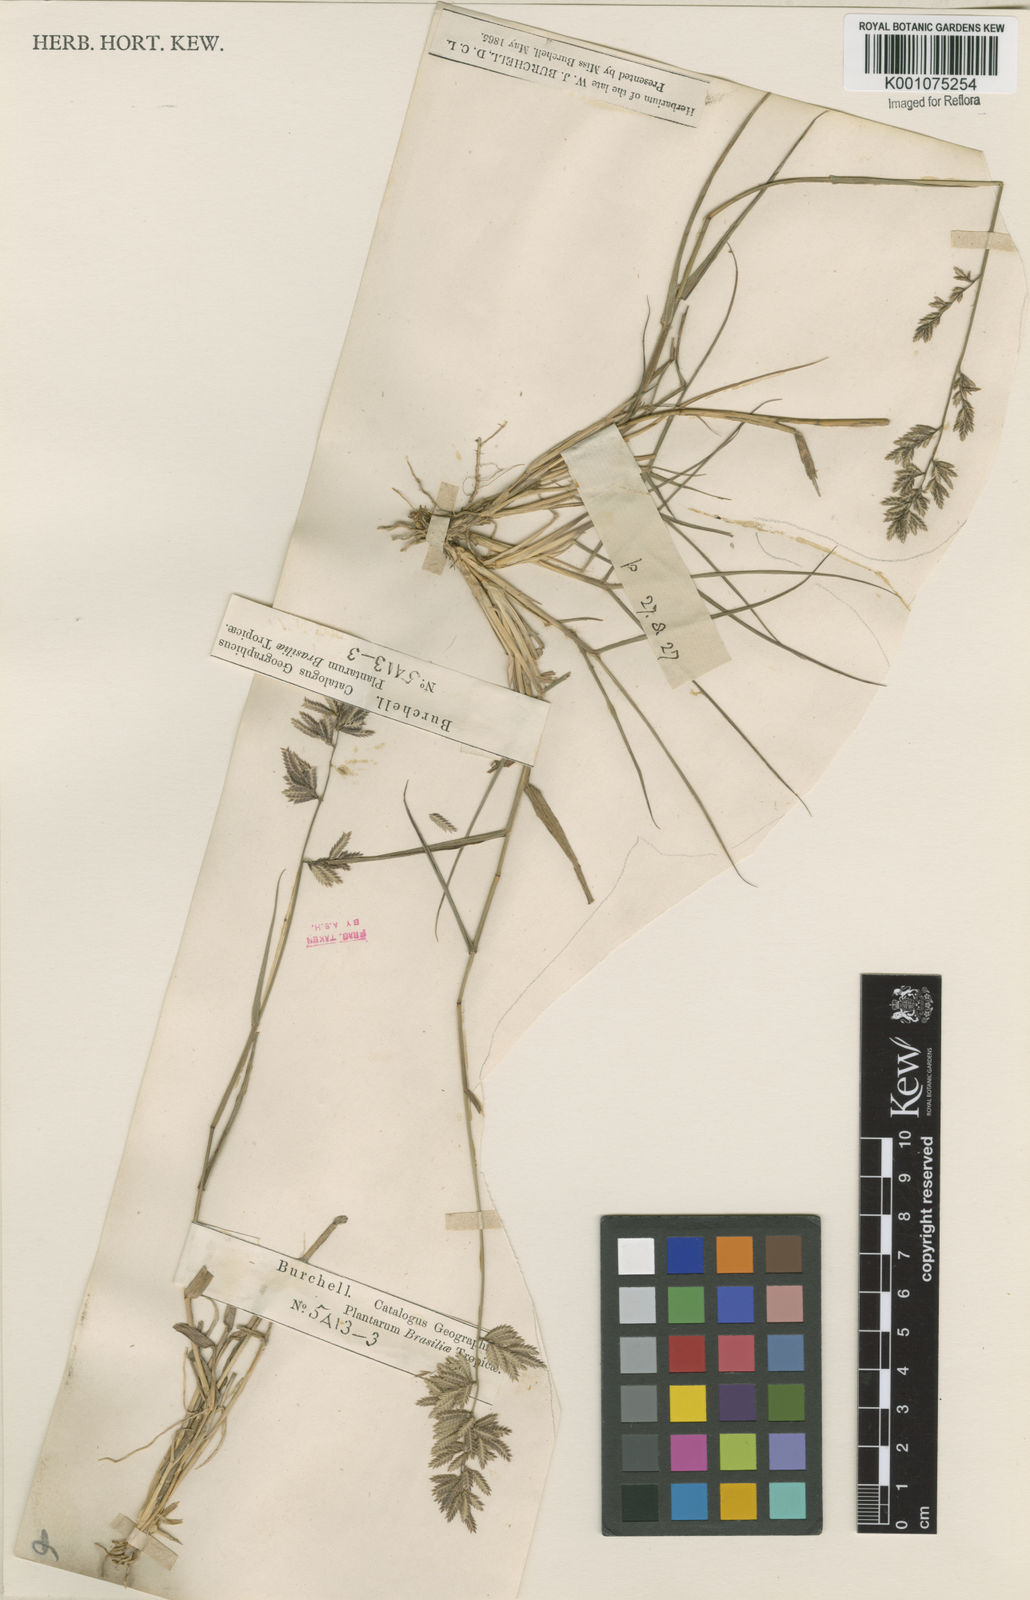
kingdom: Plantae
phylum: Tracheophyta
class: Liliopsida
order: Poales
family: Poaceae
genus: Eragrostis
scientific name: Eragrostis secundiflora
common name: Red love grass
